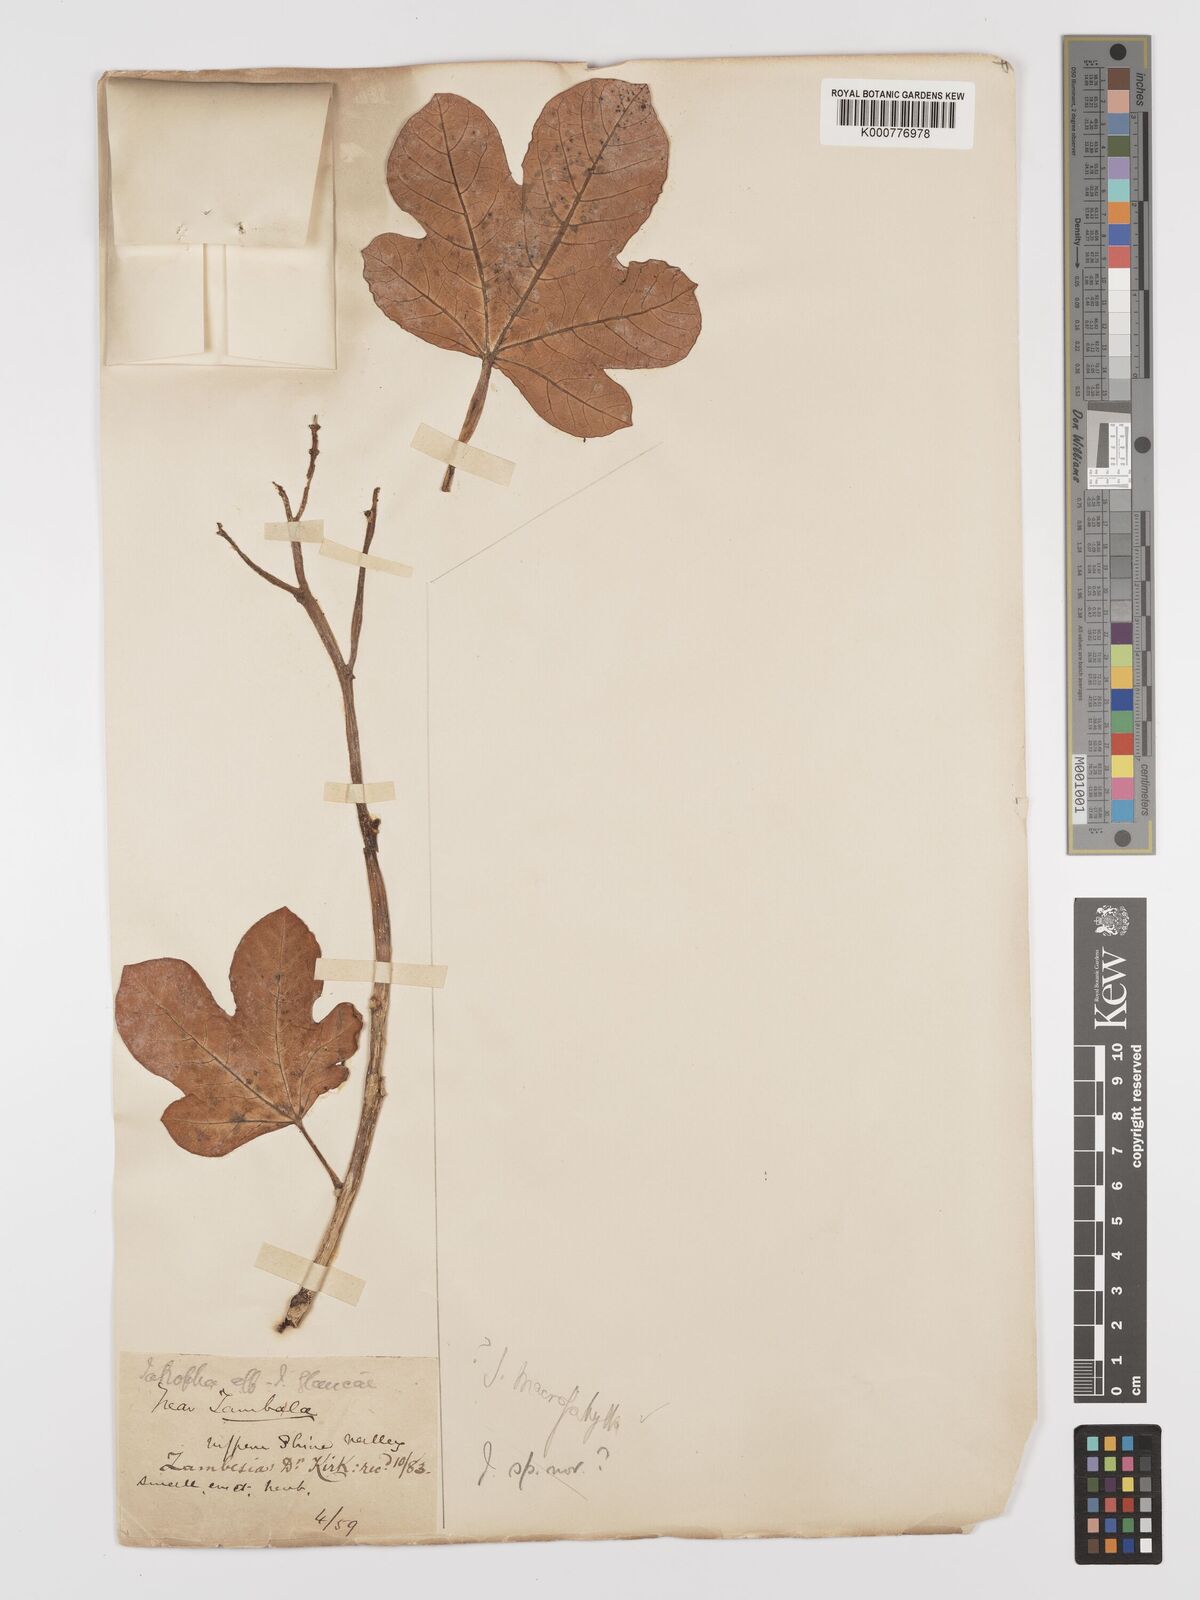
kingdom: Plantae
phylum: Tracheophyta
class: Magnoliopsida
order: Malpighiales
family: Euphorbiaceae
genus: Jatropha
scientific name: Jatropha macrophylla
